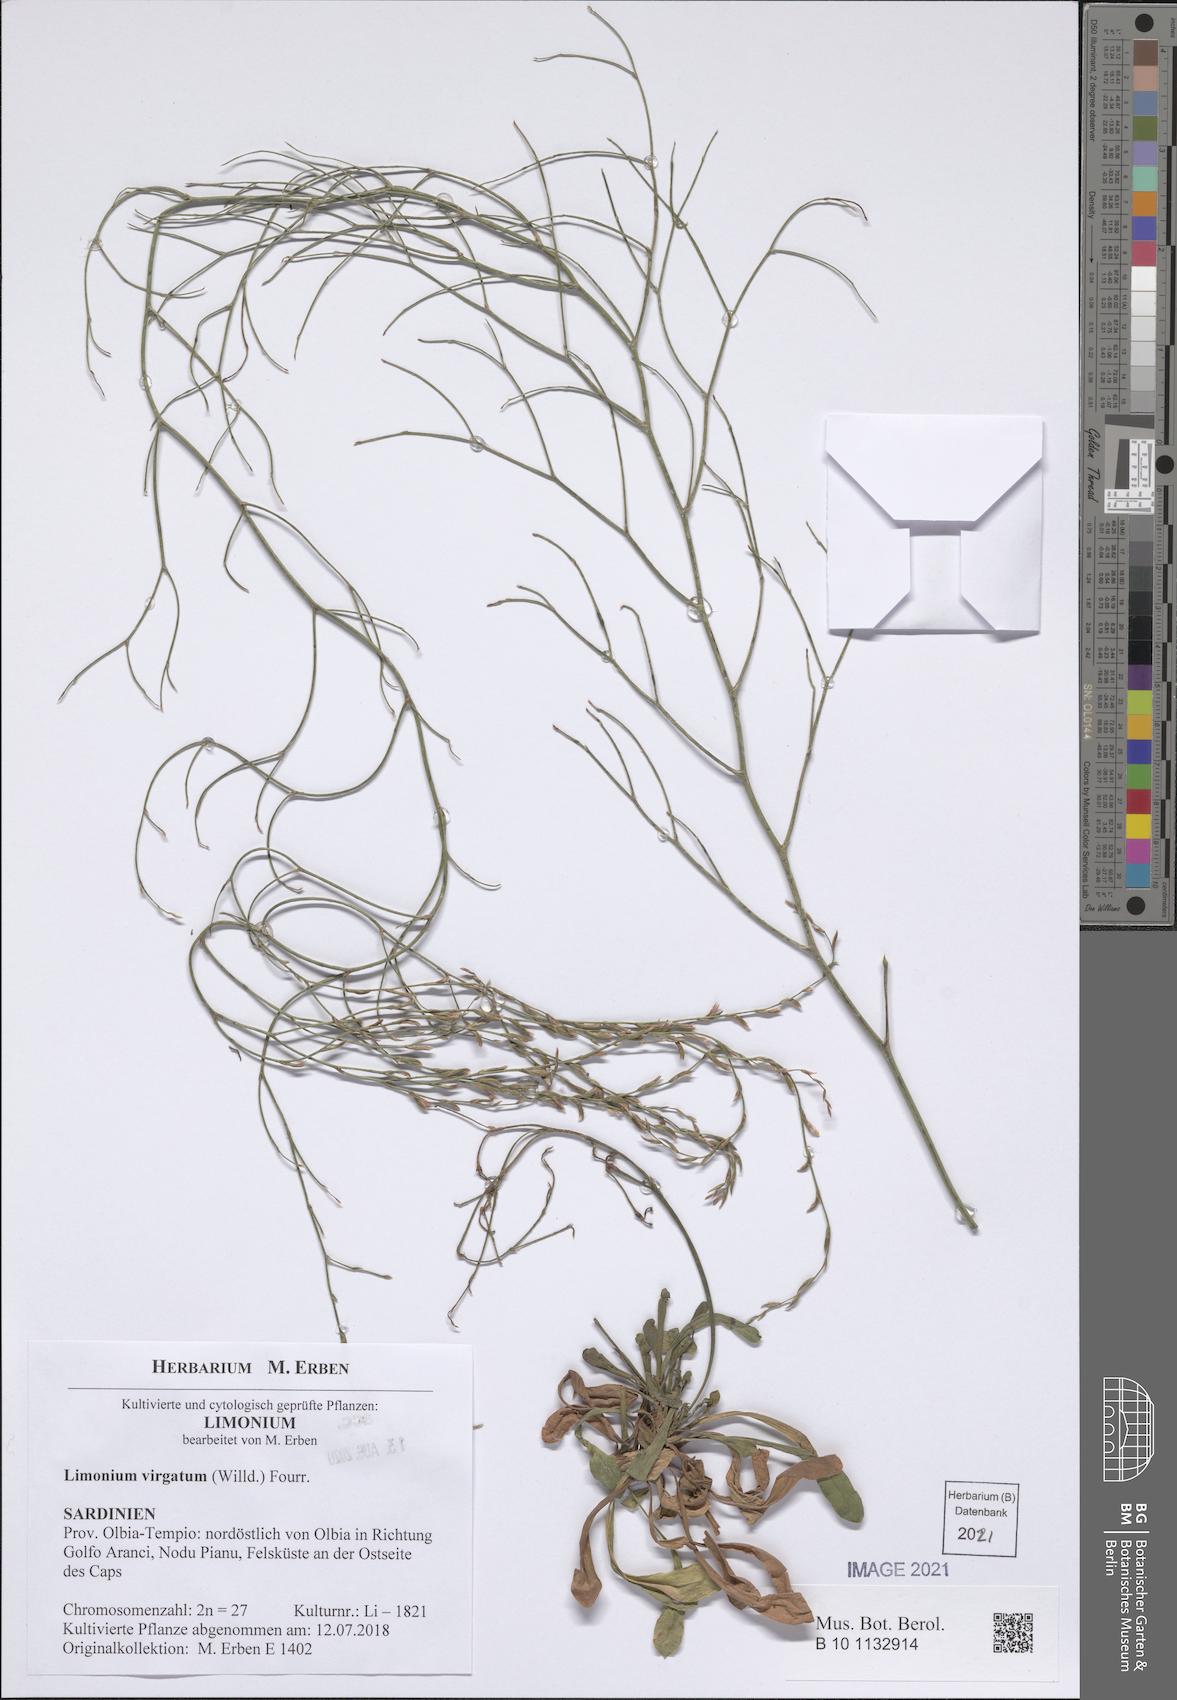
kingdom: Plantae
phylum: Tracheophyta
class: Magnoliopsida
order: Caryophyllales
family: Plumbaginaceae
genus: Limonium
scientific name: Limonium virgatum
